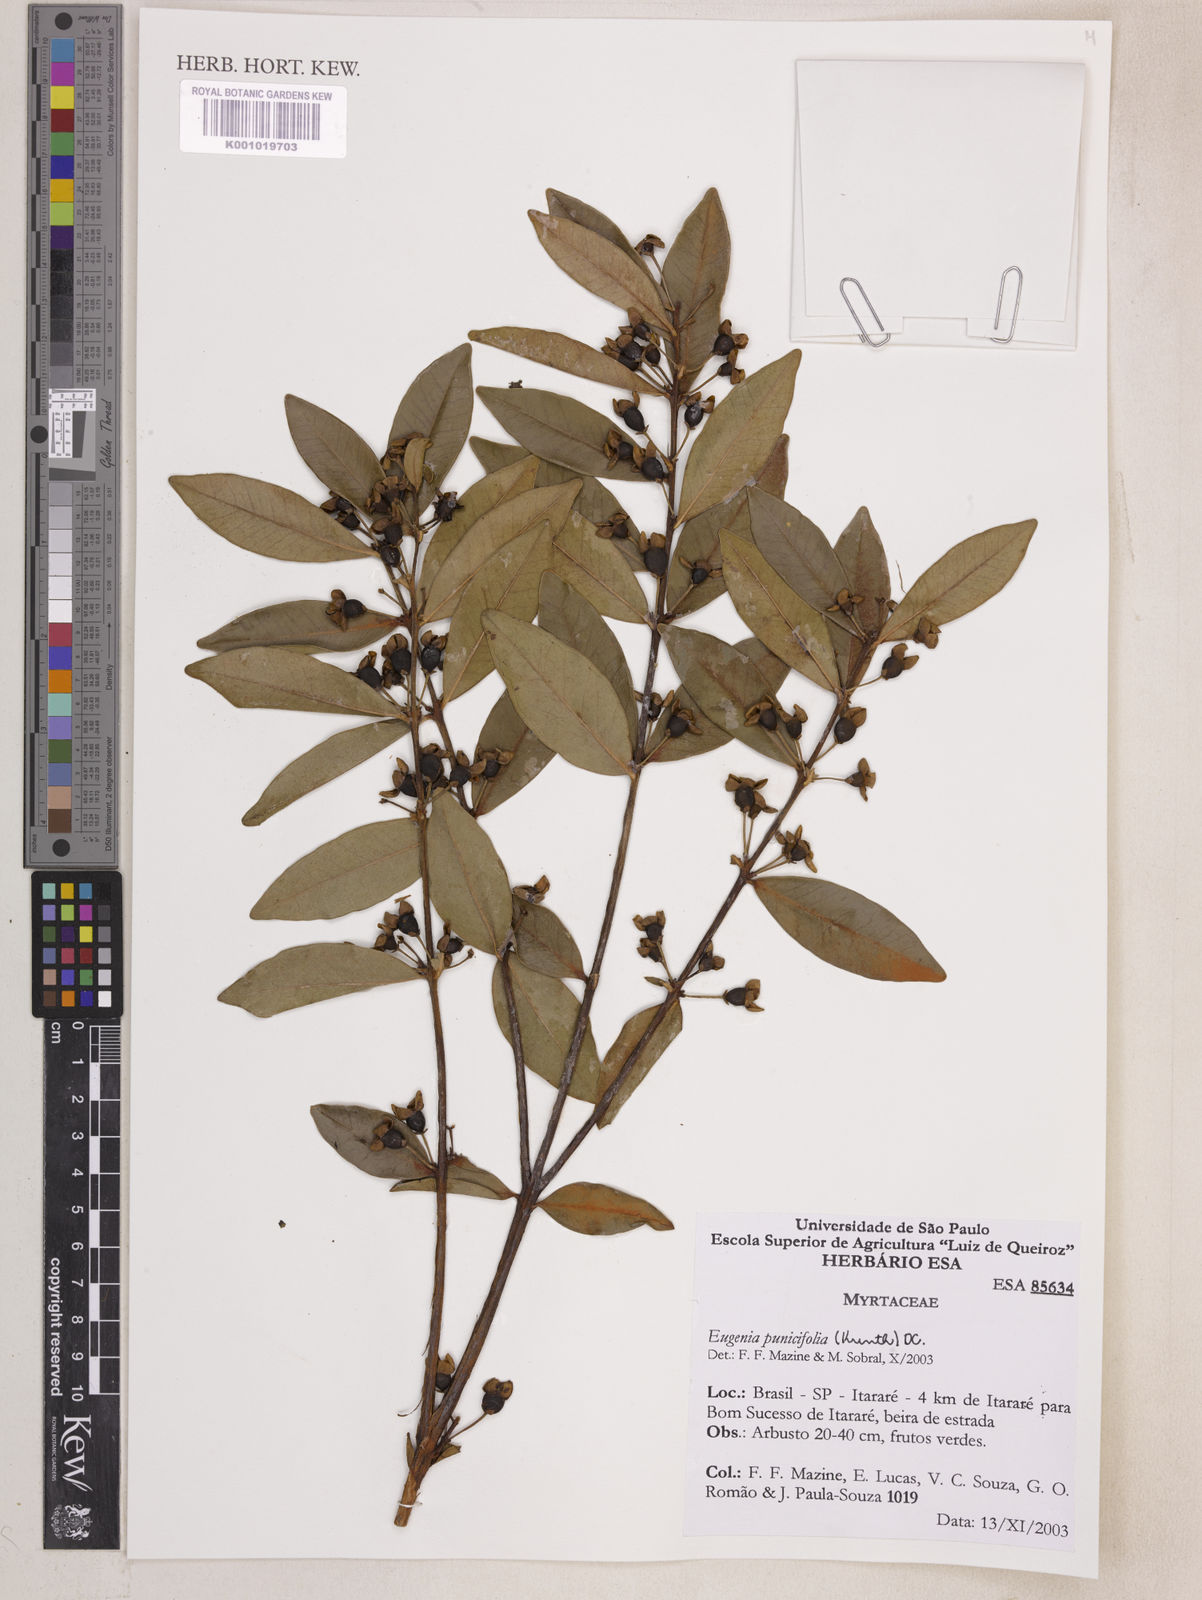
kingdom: Plantae
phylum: Tracheophyta
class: Magnoliopsida
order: Myrtales
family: Myrtaceae
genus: Eugenia
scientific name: Eugenia punicifolia
